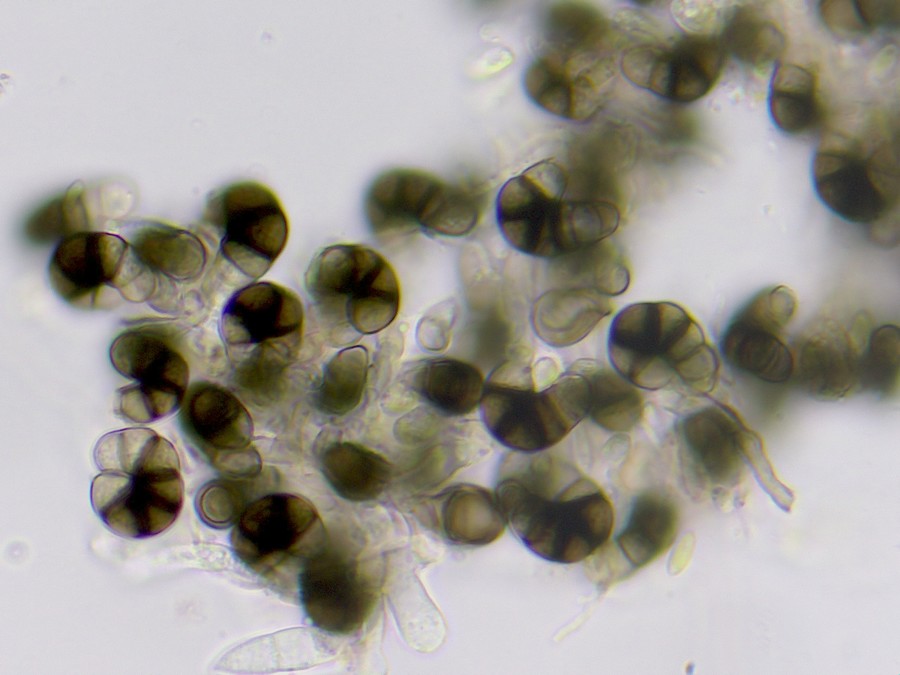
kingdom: Fungi
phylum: Ascomycota
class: Dothideomycetes
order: Tubeufiales
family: Tubeufiaceae
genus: Helicoma
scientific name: Helicoma monosporum
